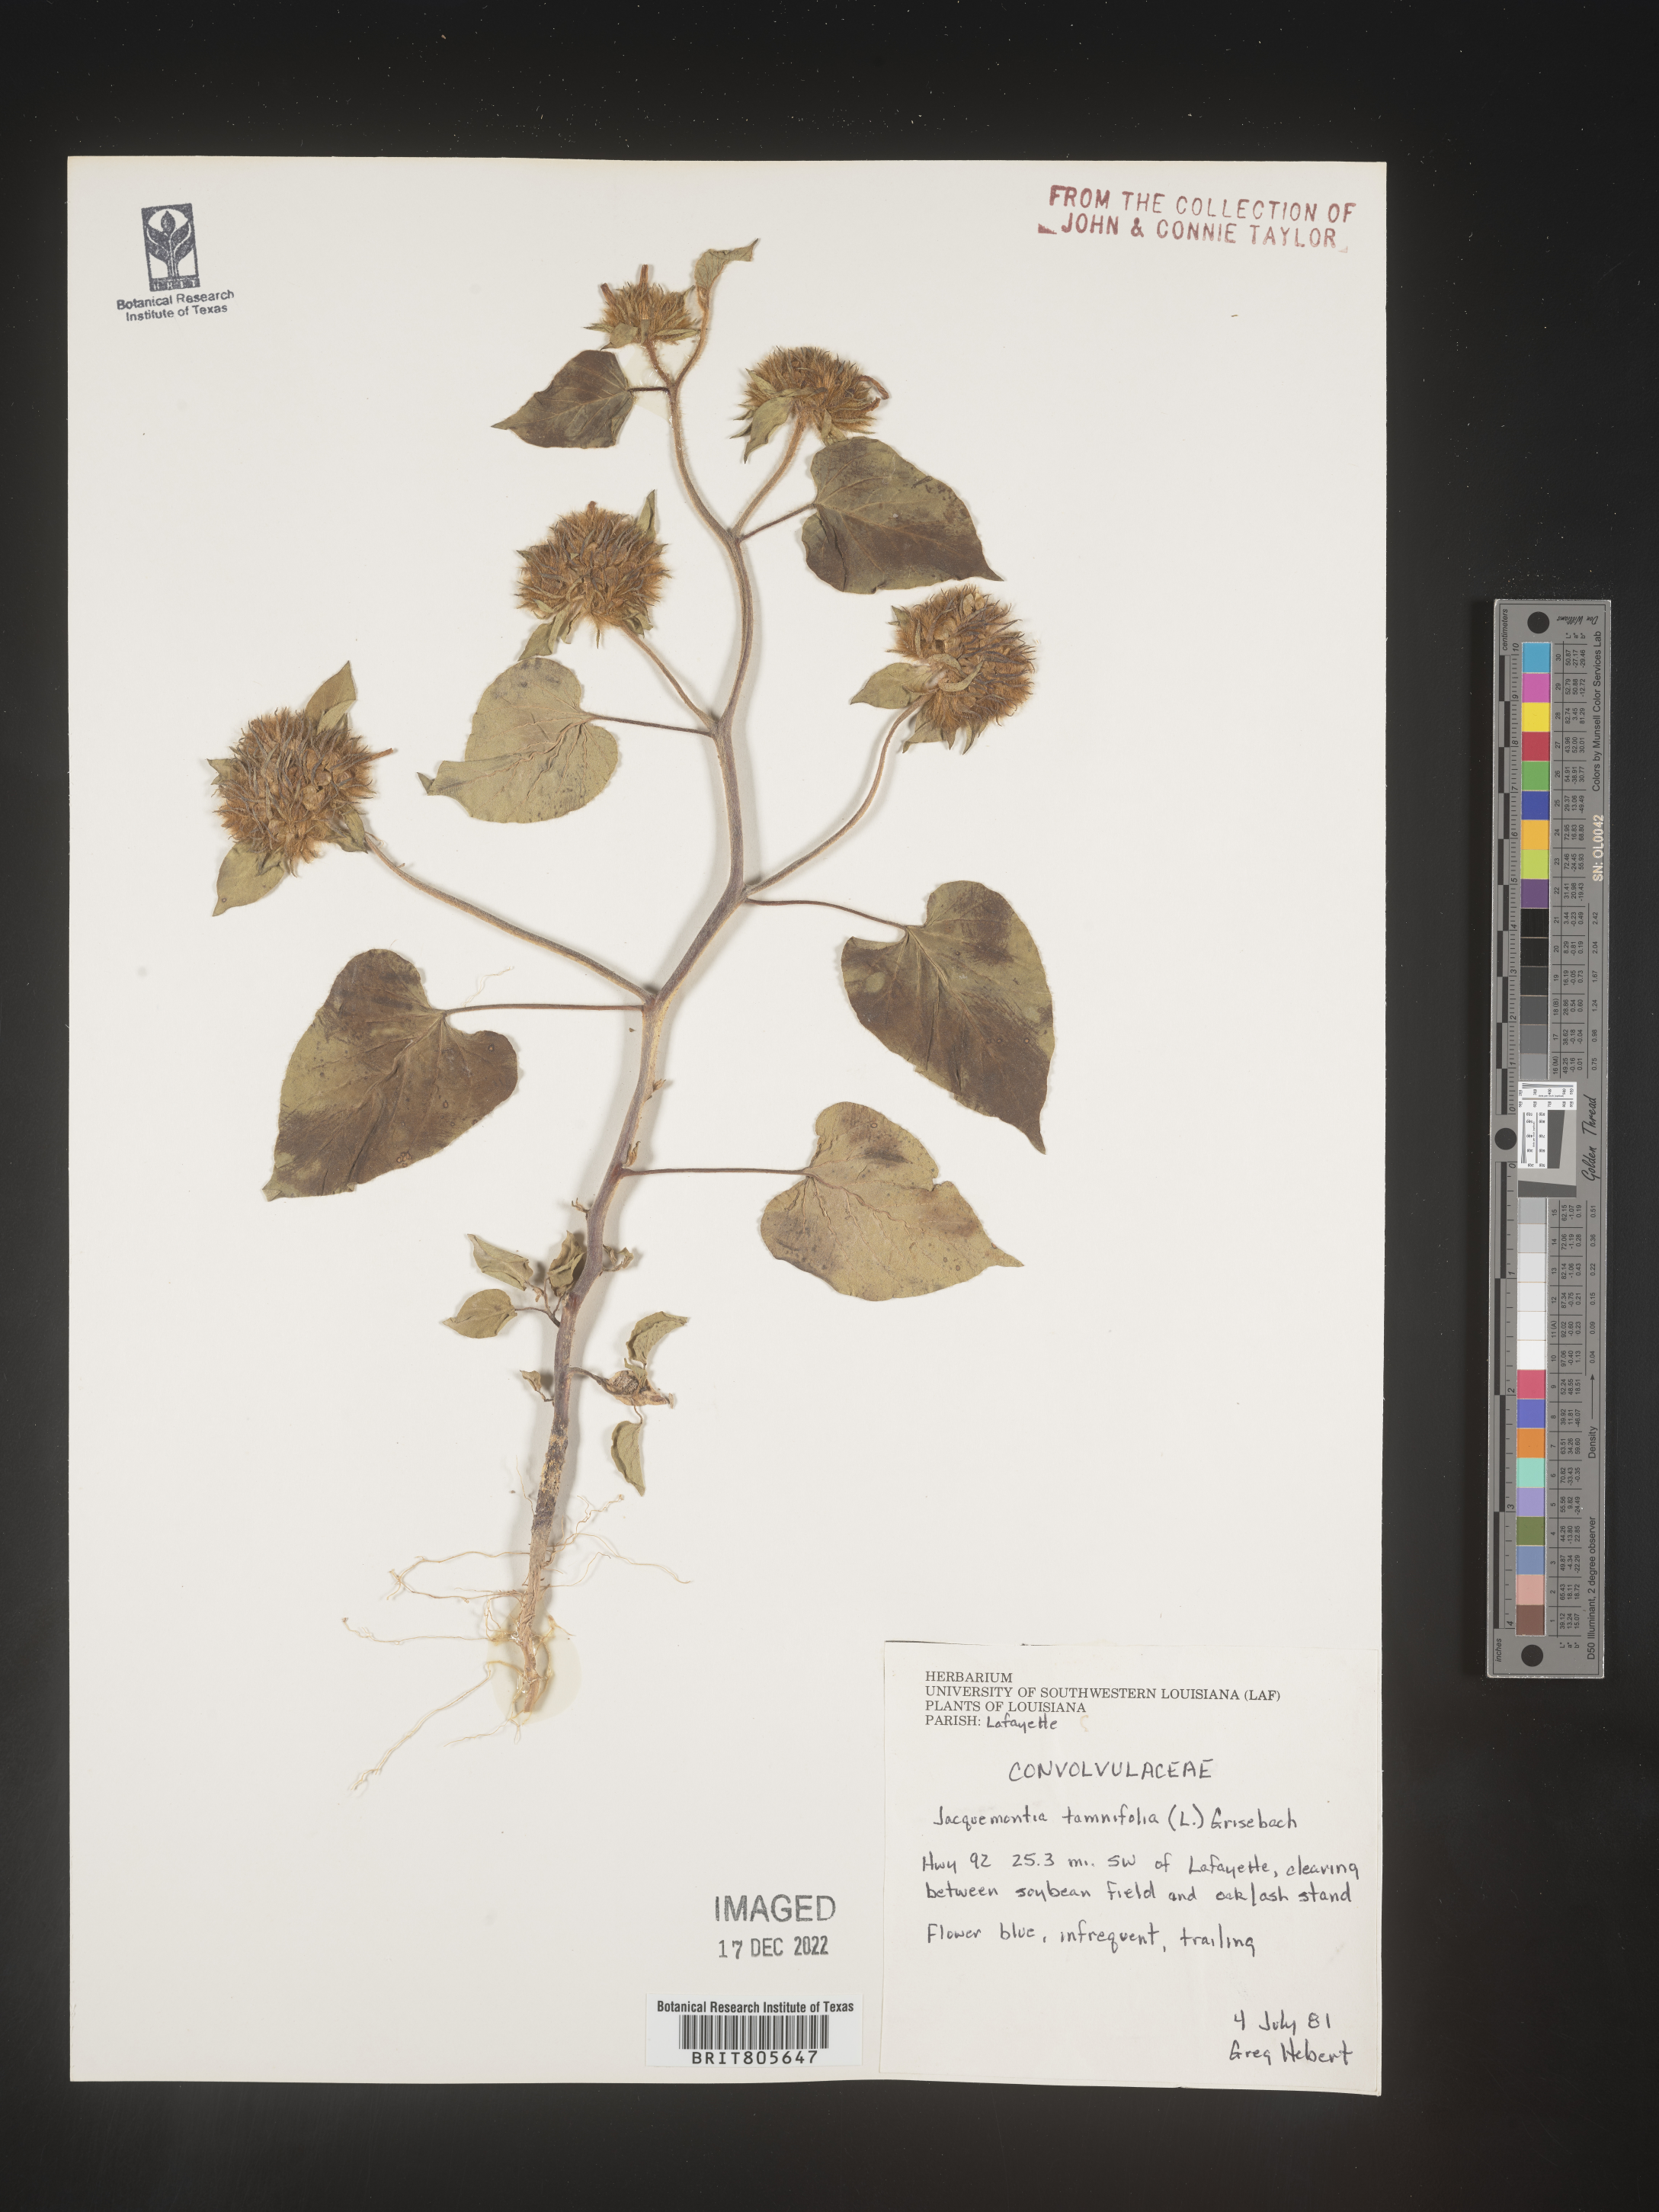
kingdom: Plantae
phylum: Tracheophyta
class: Magnoliopsida
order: Solanales
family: Convolvulaceae
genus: Jacquemontia
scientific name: Jacquemontia tamnifolia
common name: Hairy clustervine
